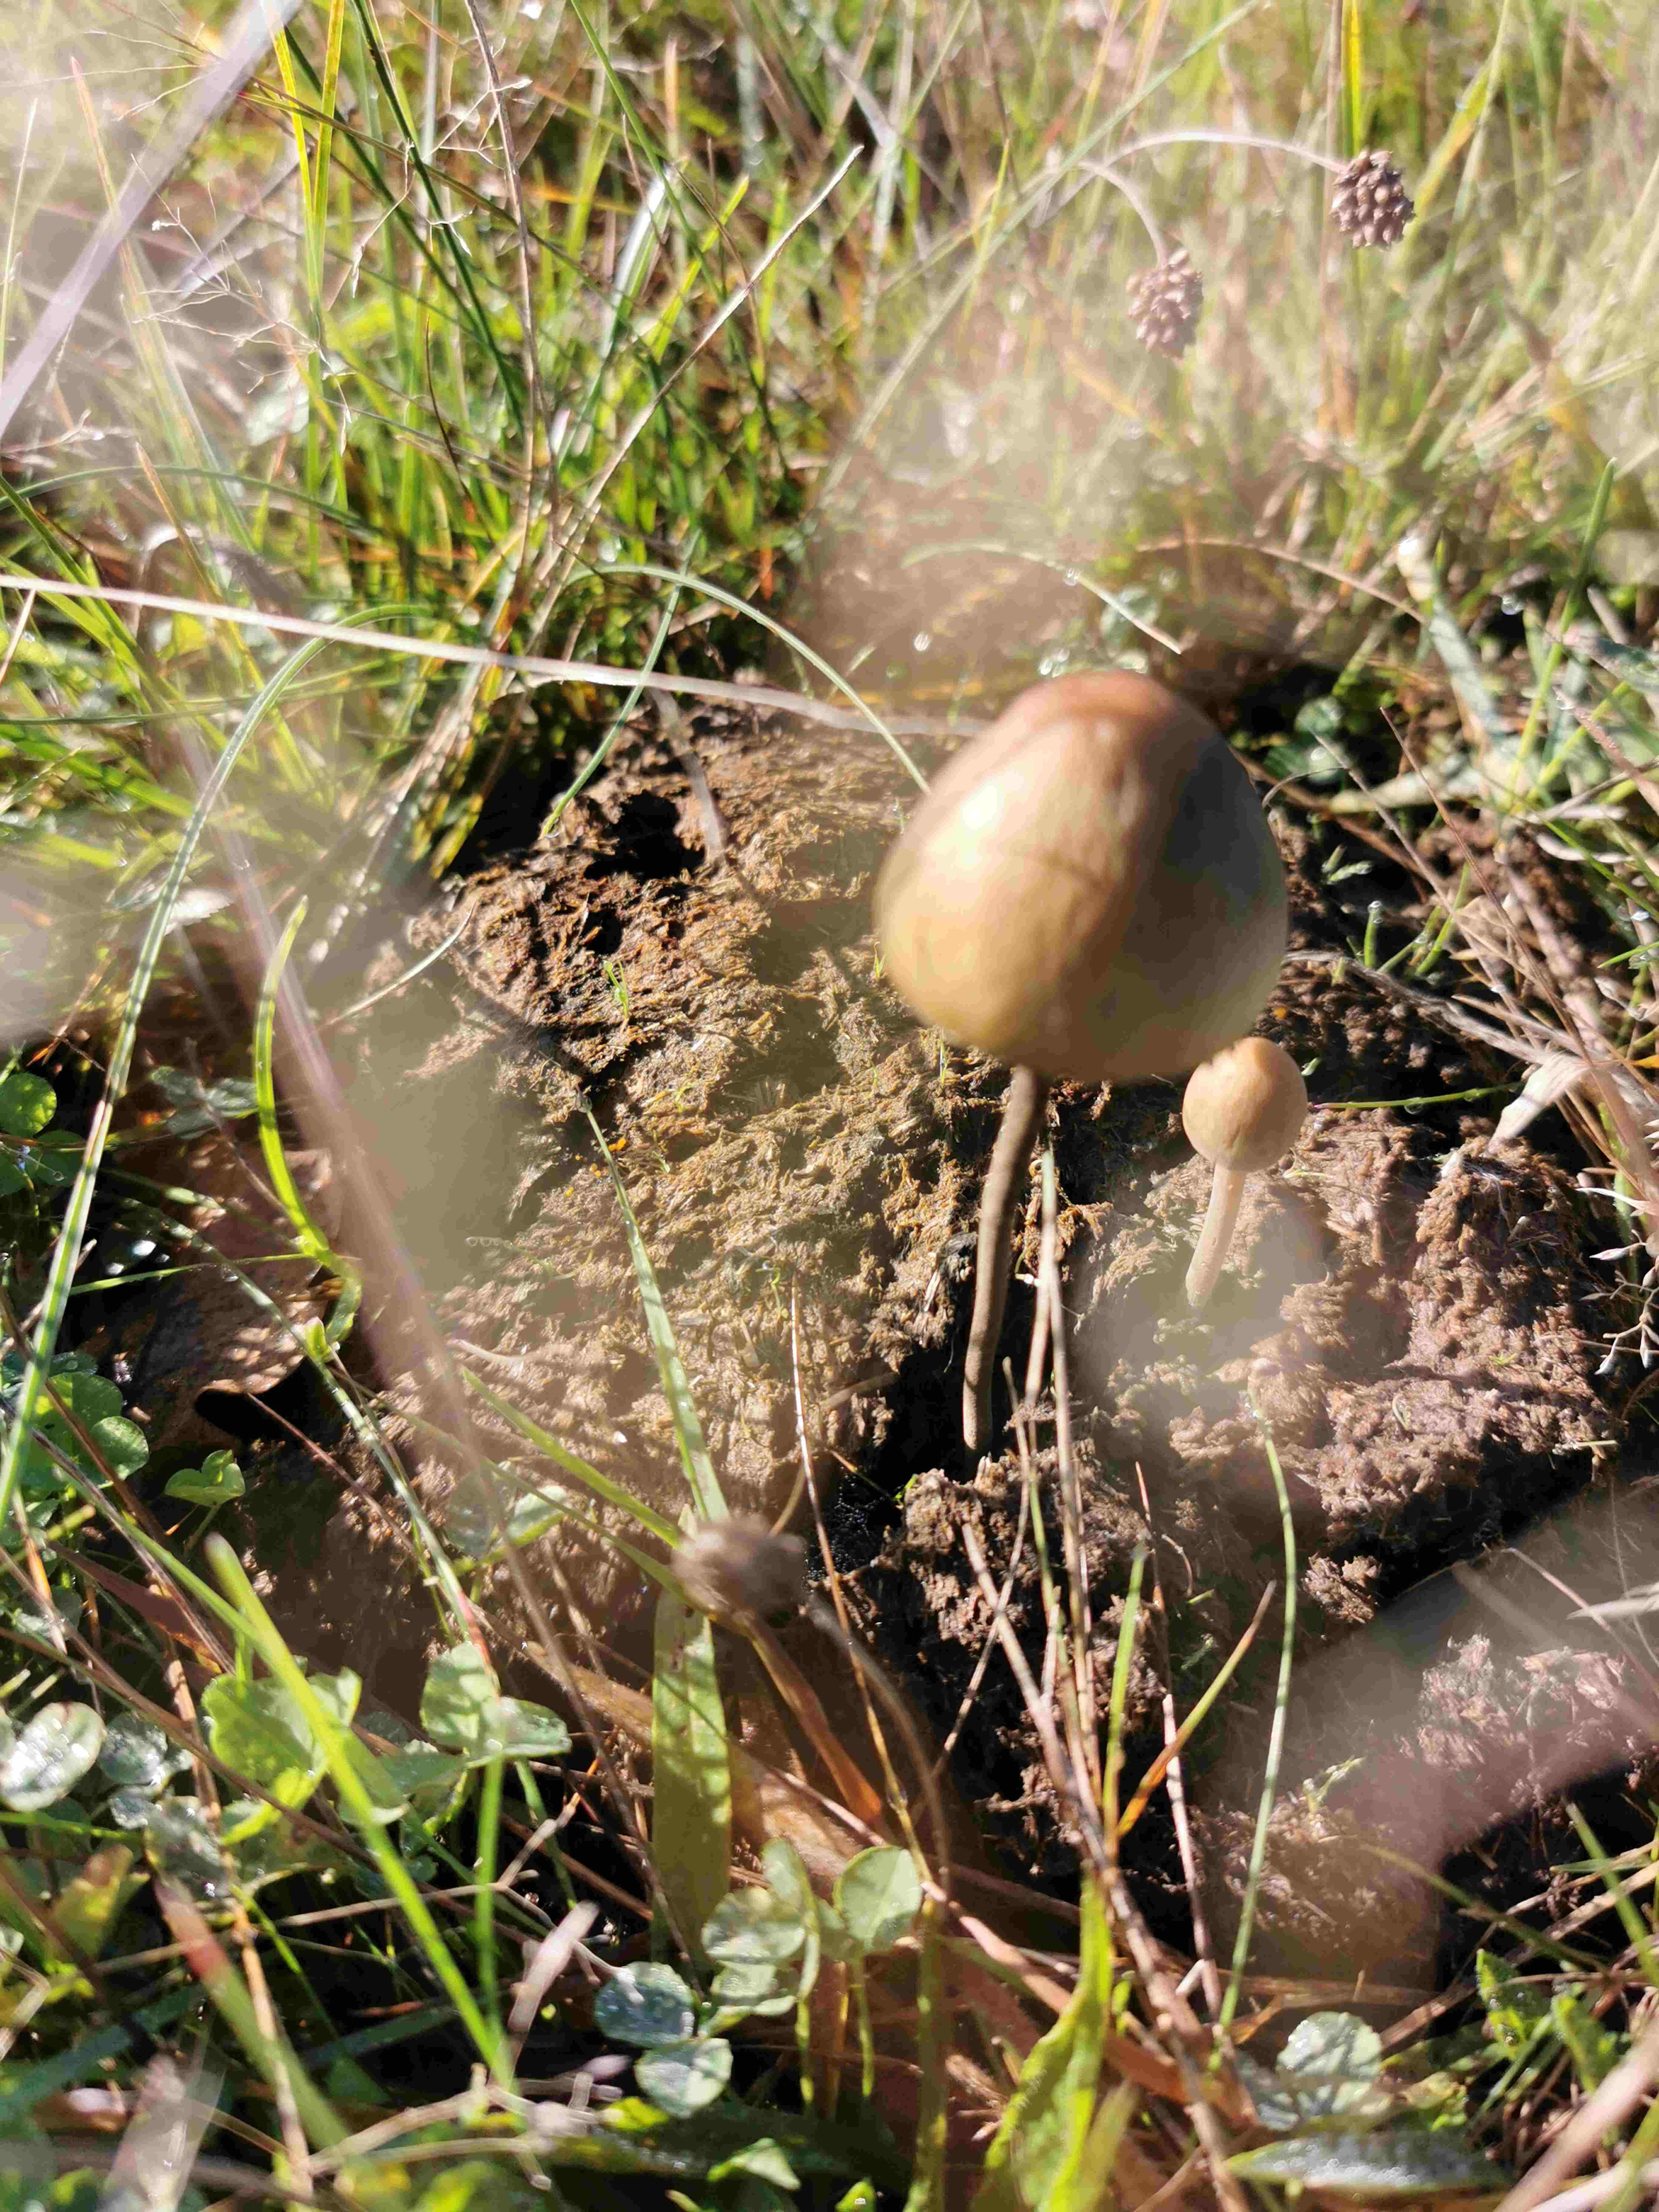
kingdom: Fungi
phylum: Basidiomycota
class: Agaricomycetes
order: Agaricales
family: Bolbitiaceae
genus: Panaeolus
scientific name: Panaeolus
